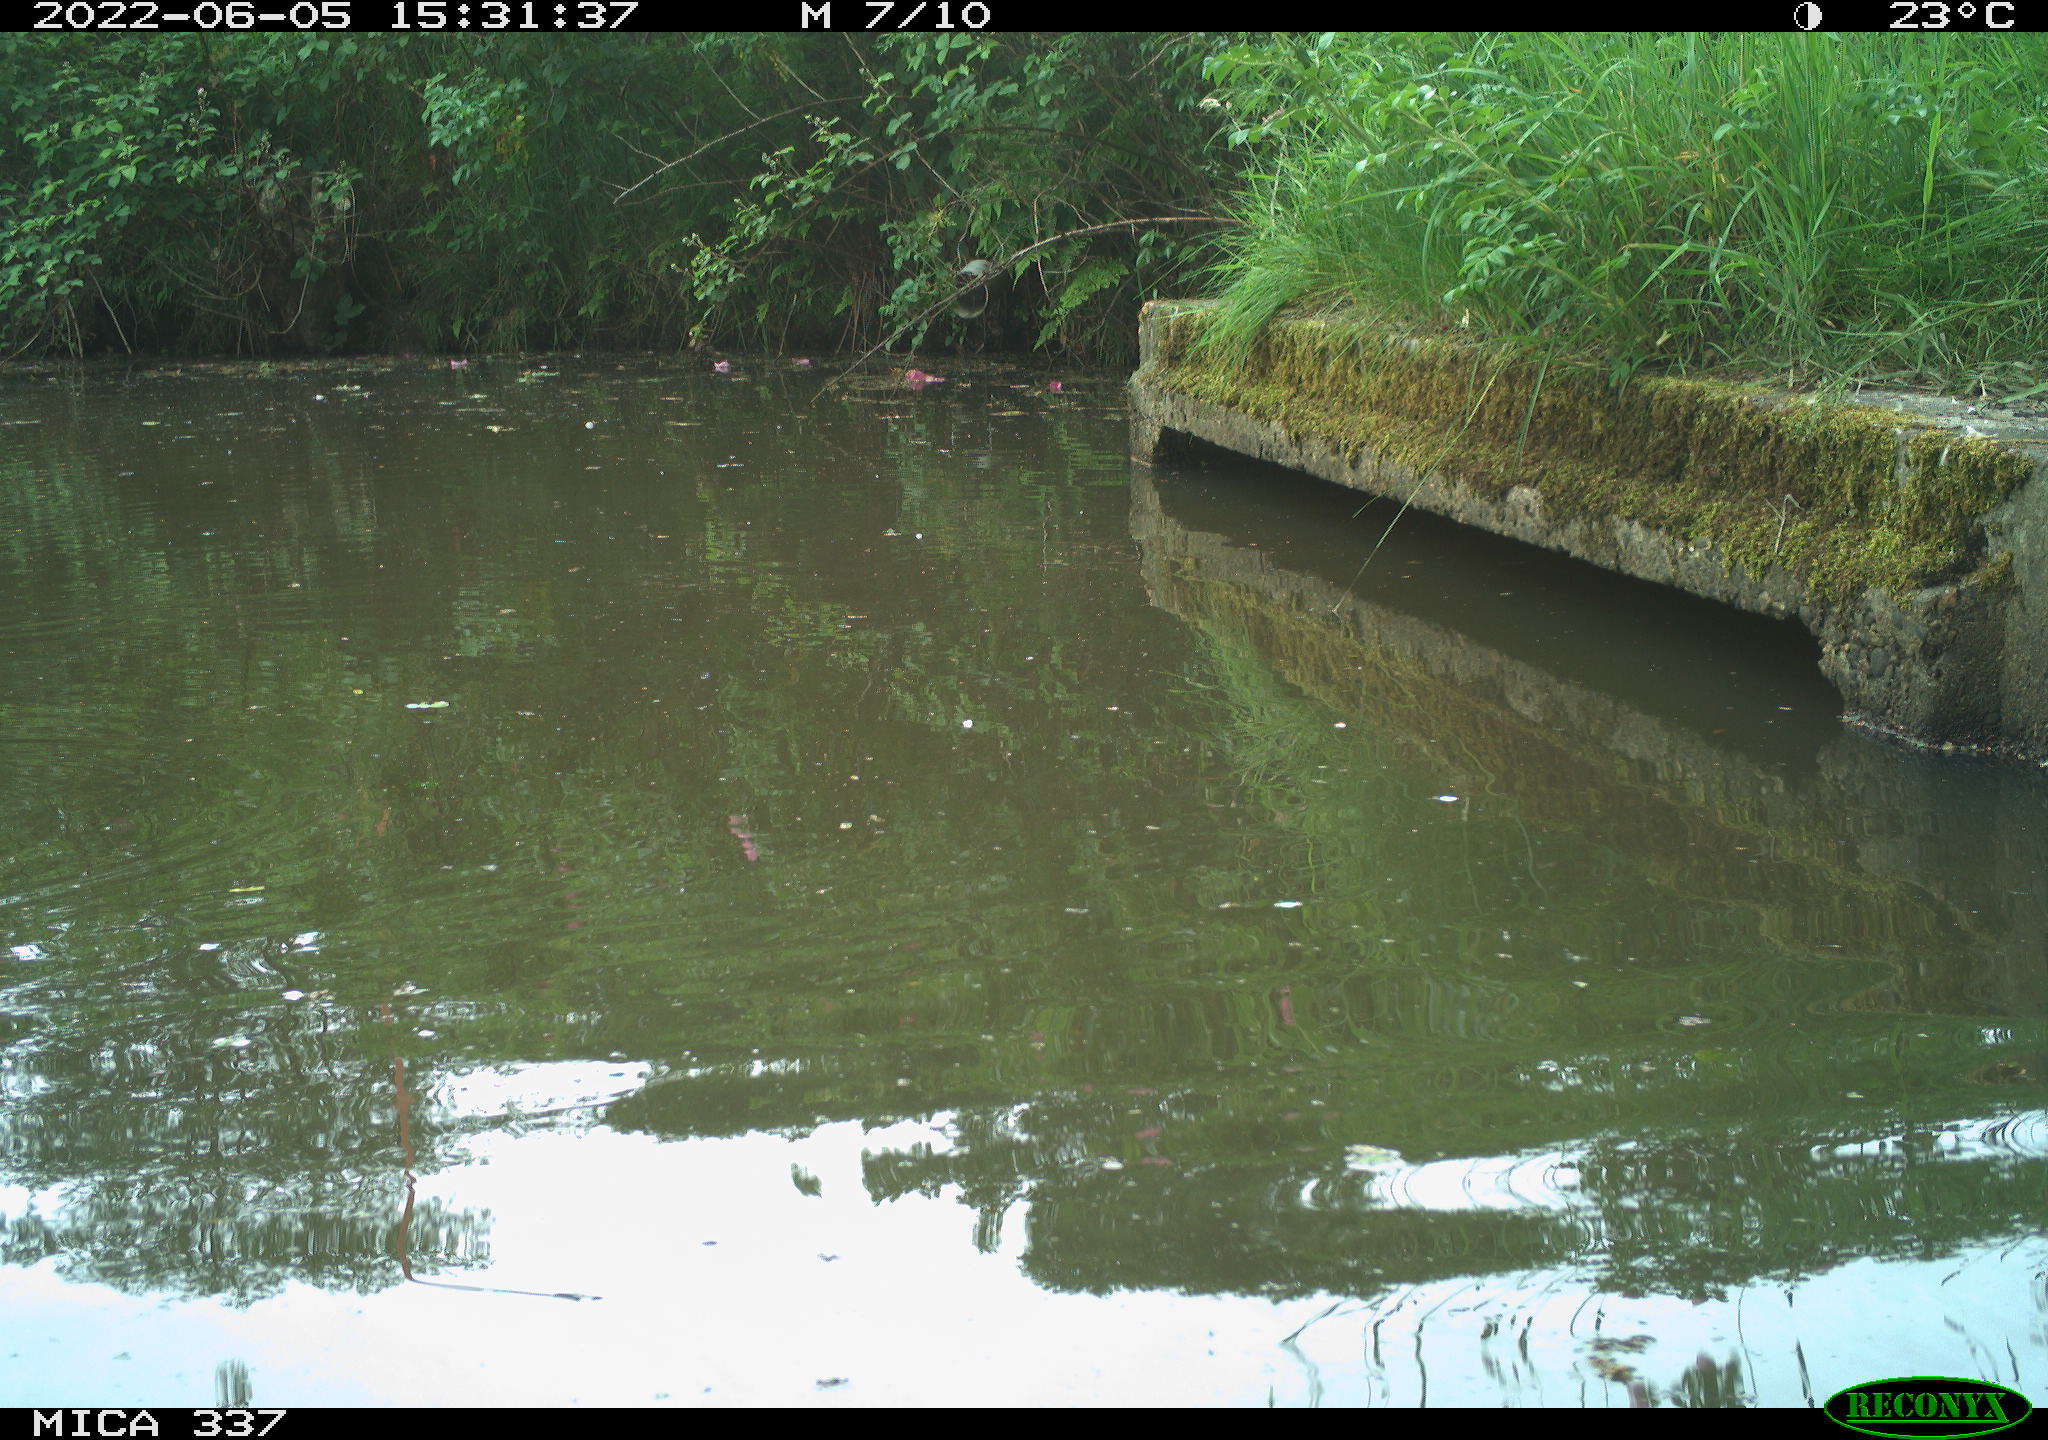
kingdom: Animalia
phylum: Chordata
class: Aves
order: Gruiformes
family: Rallidae
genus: Gallinula
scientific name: Gallinula chloropus
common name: Common moorhen
